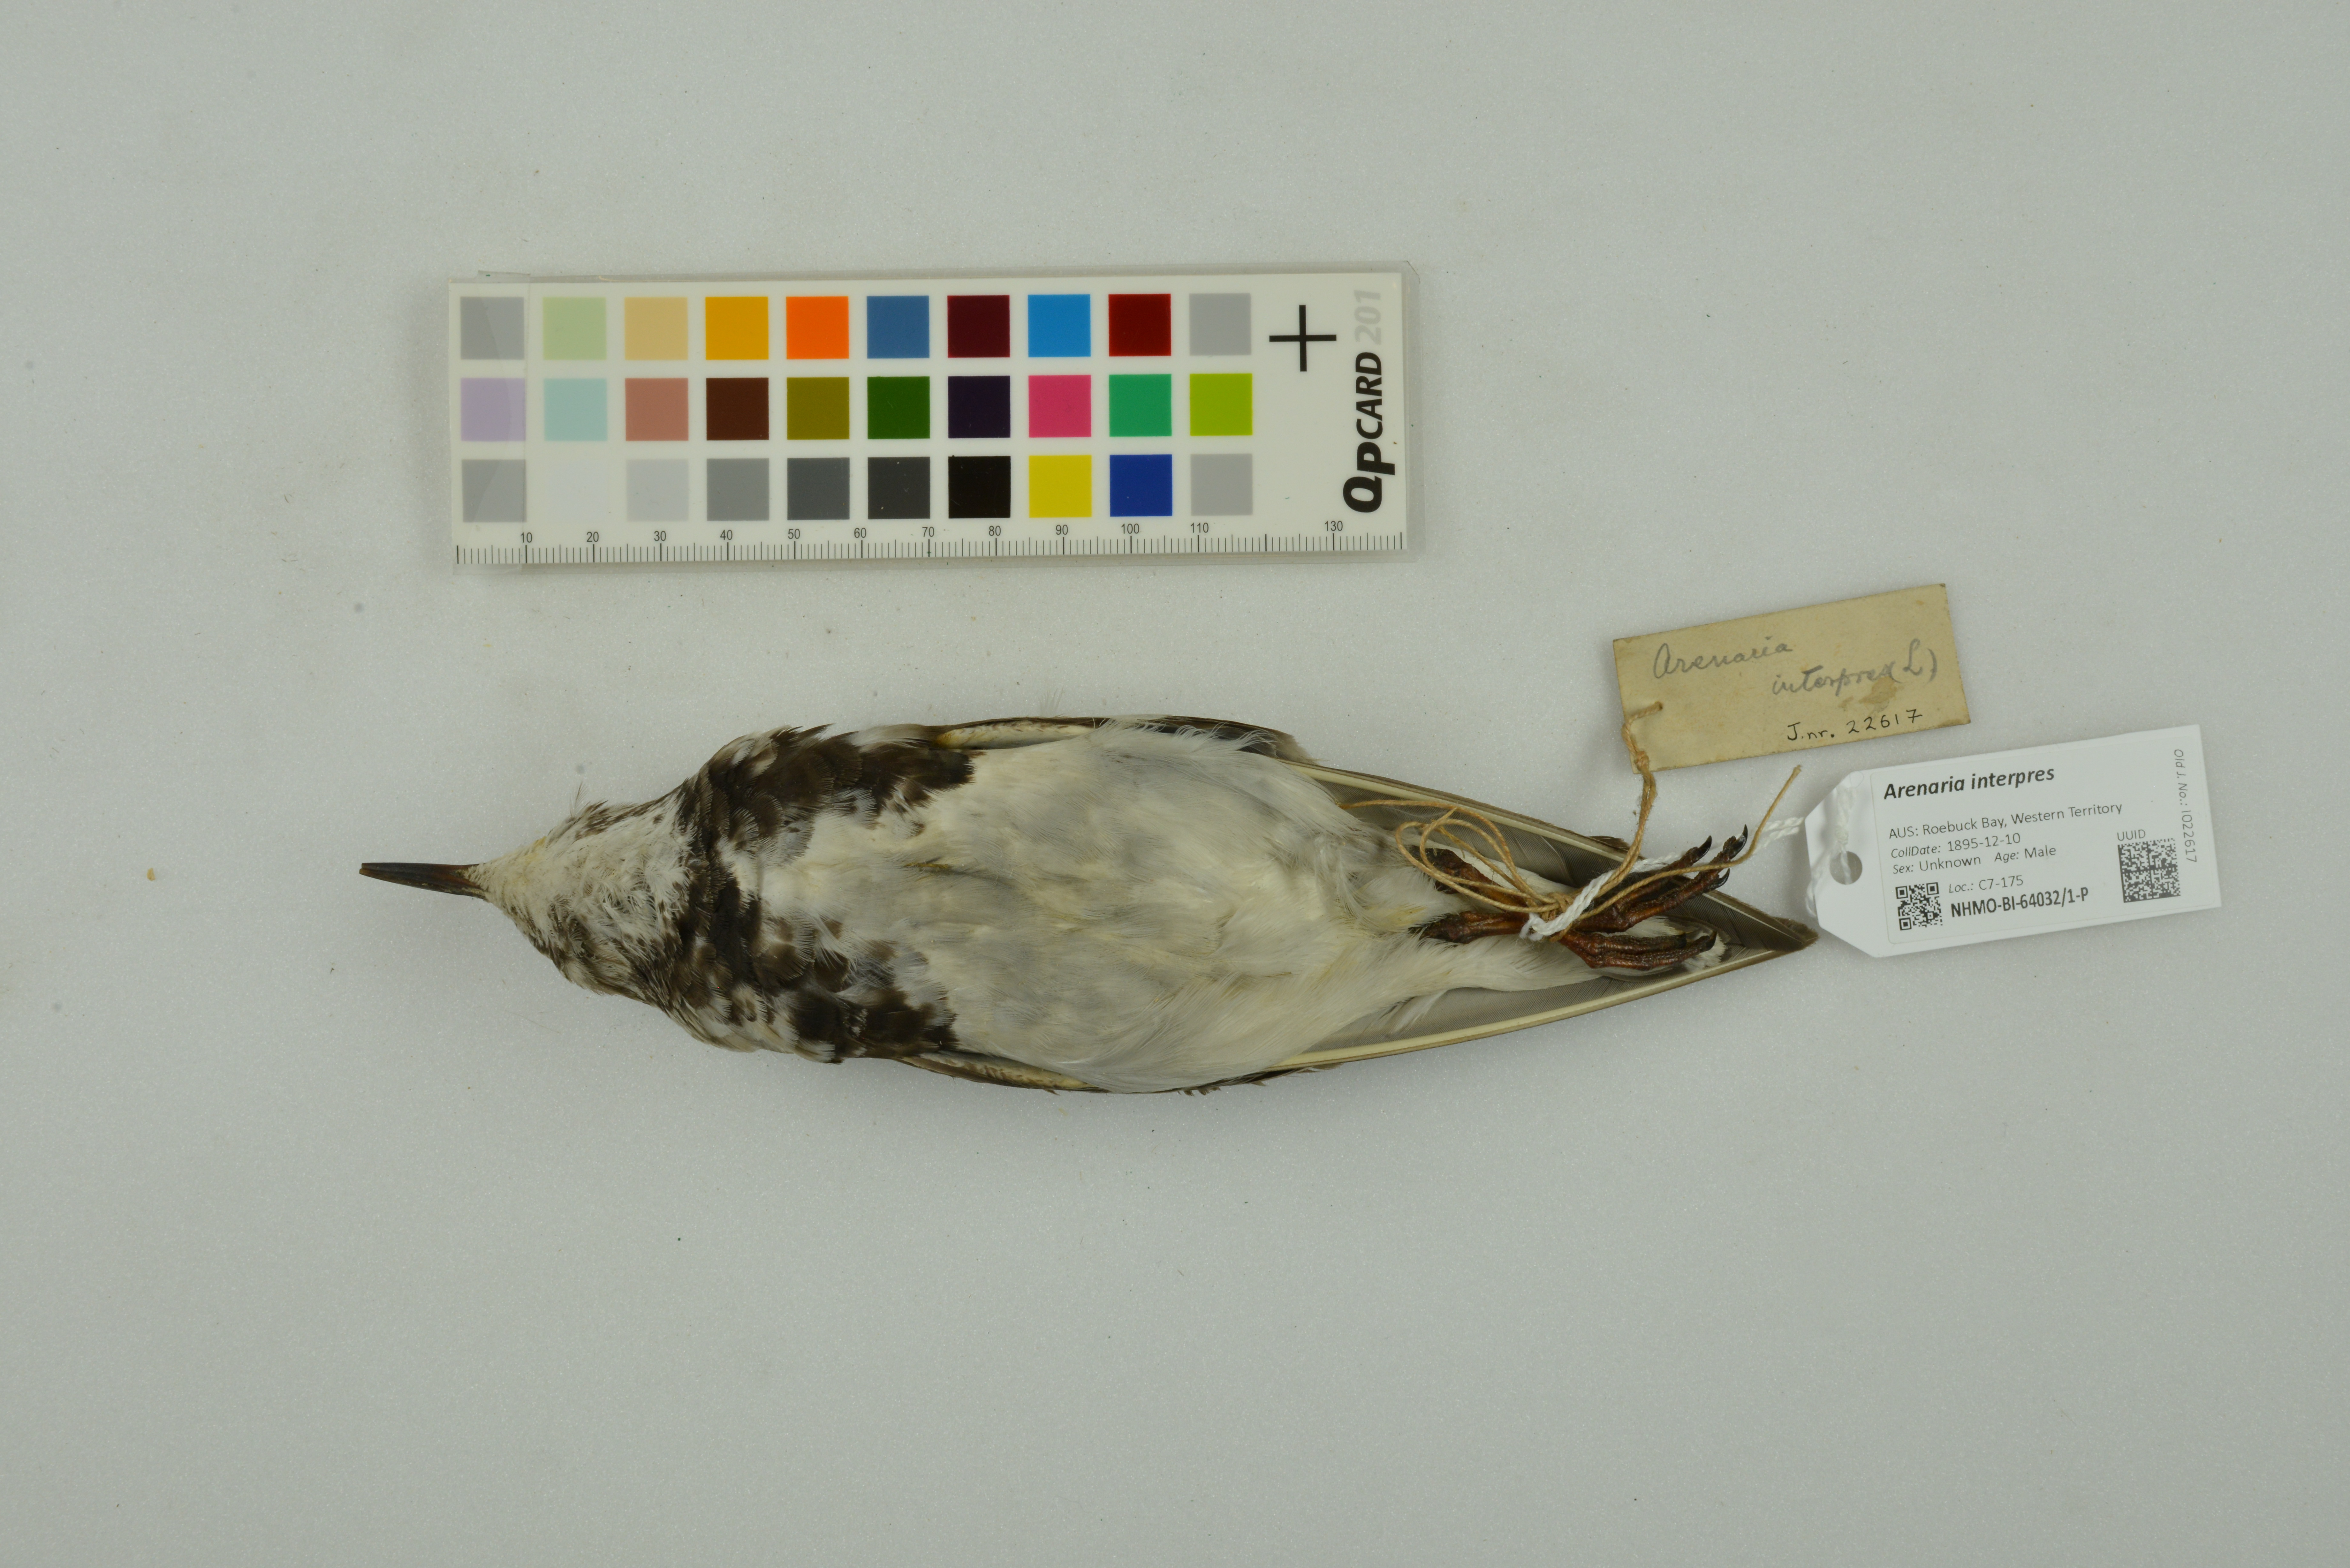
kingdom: Animalia
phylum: Chordata
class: Aves
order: Charadriiformes
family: Scolopacidae
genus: Arenaria
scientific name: Arenaria interpres
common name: Ruddy turnstone
